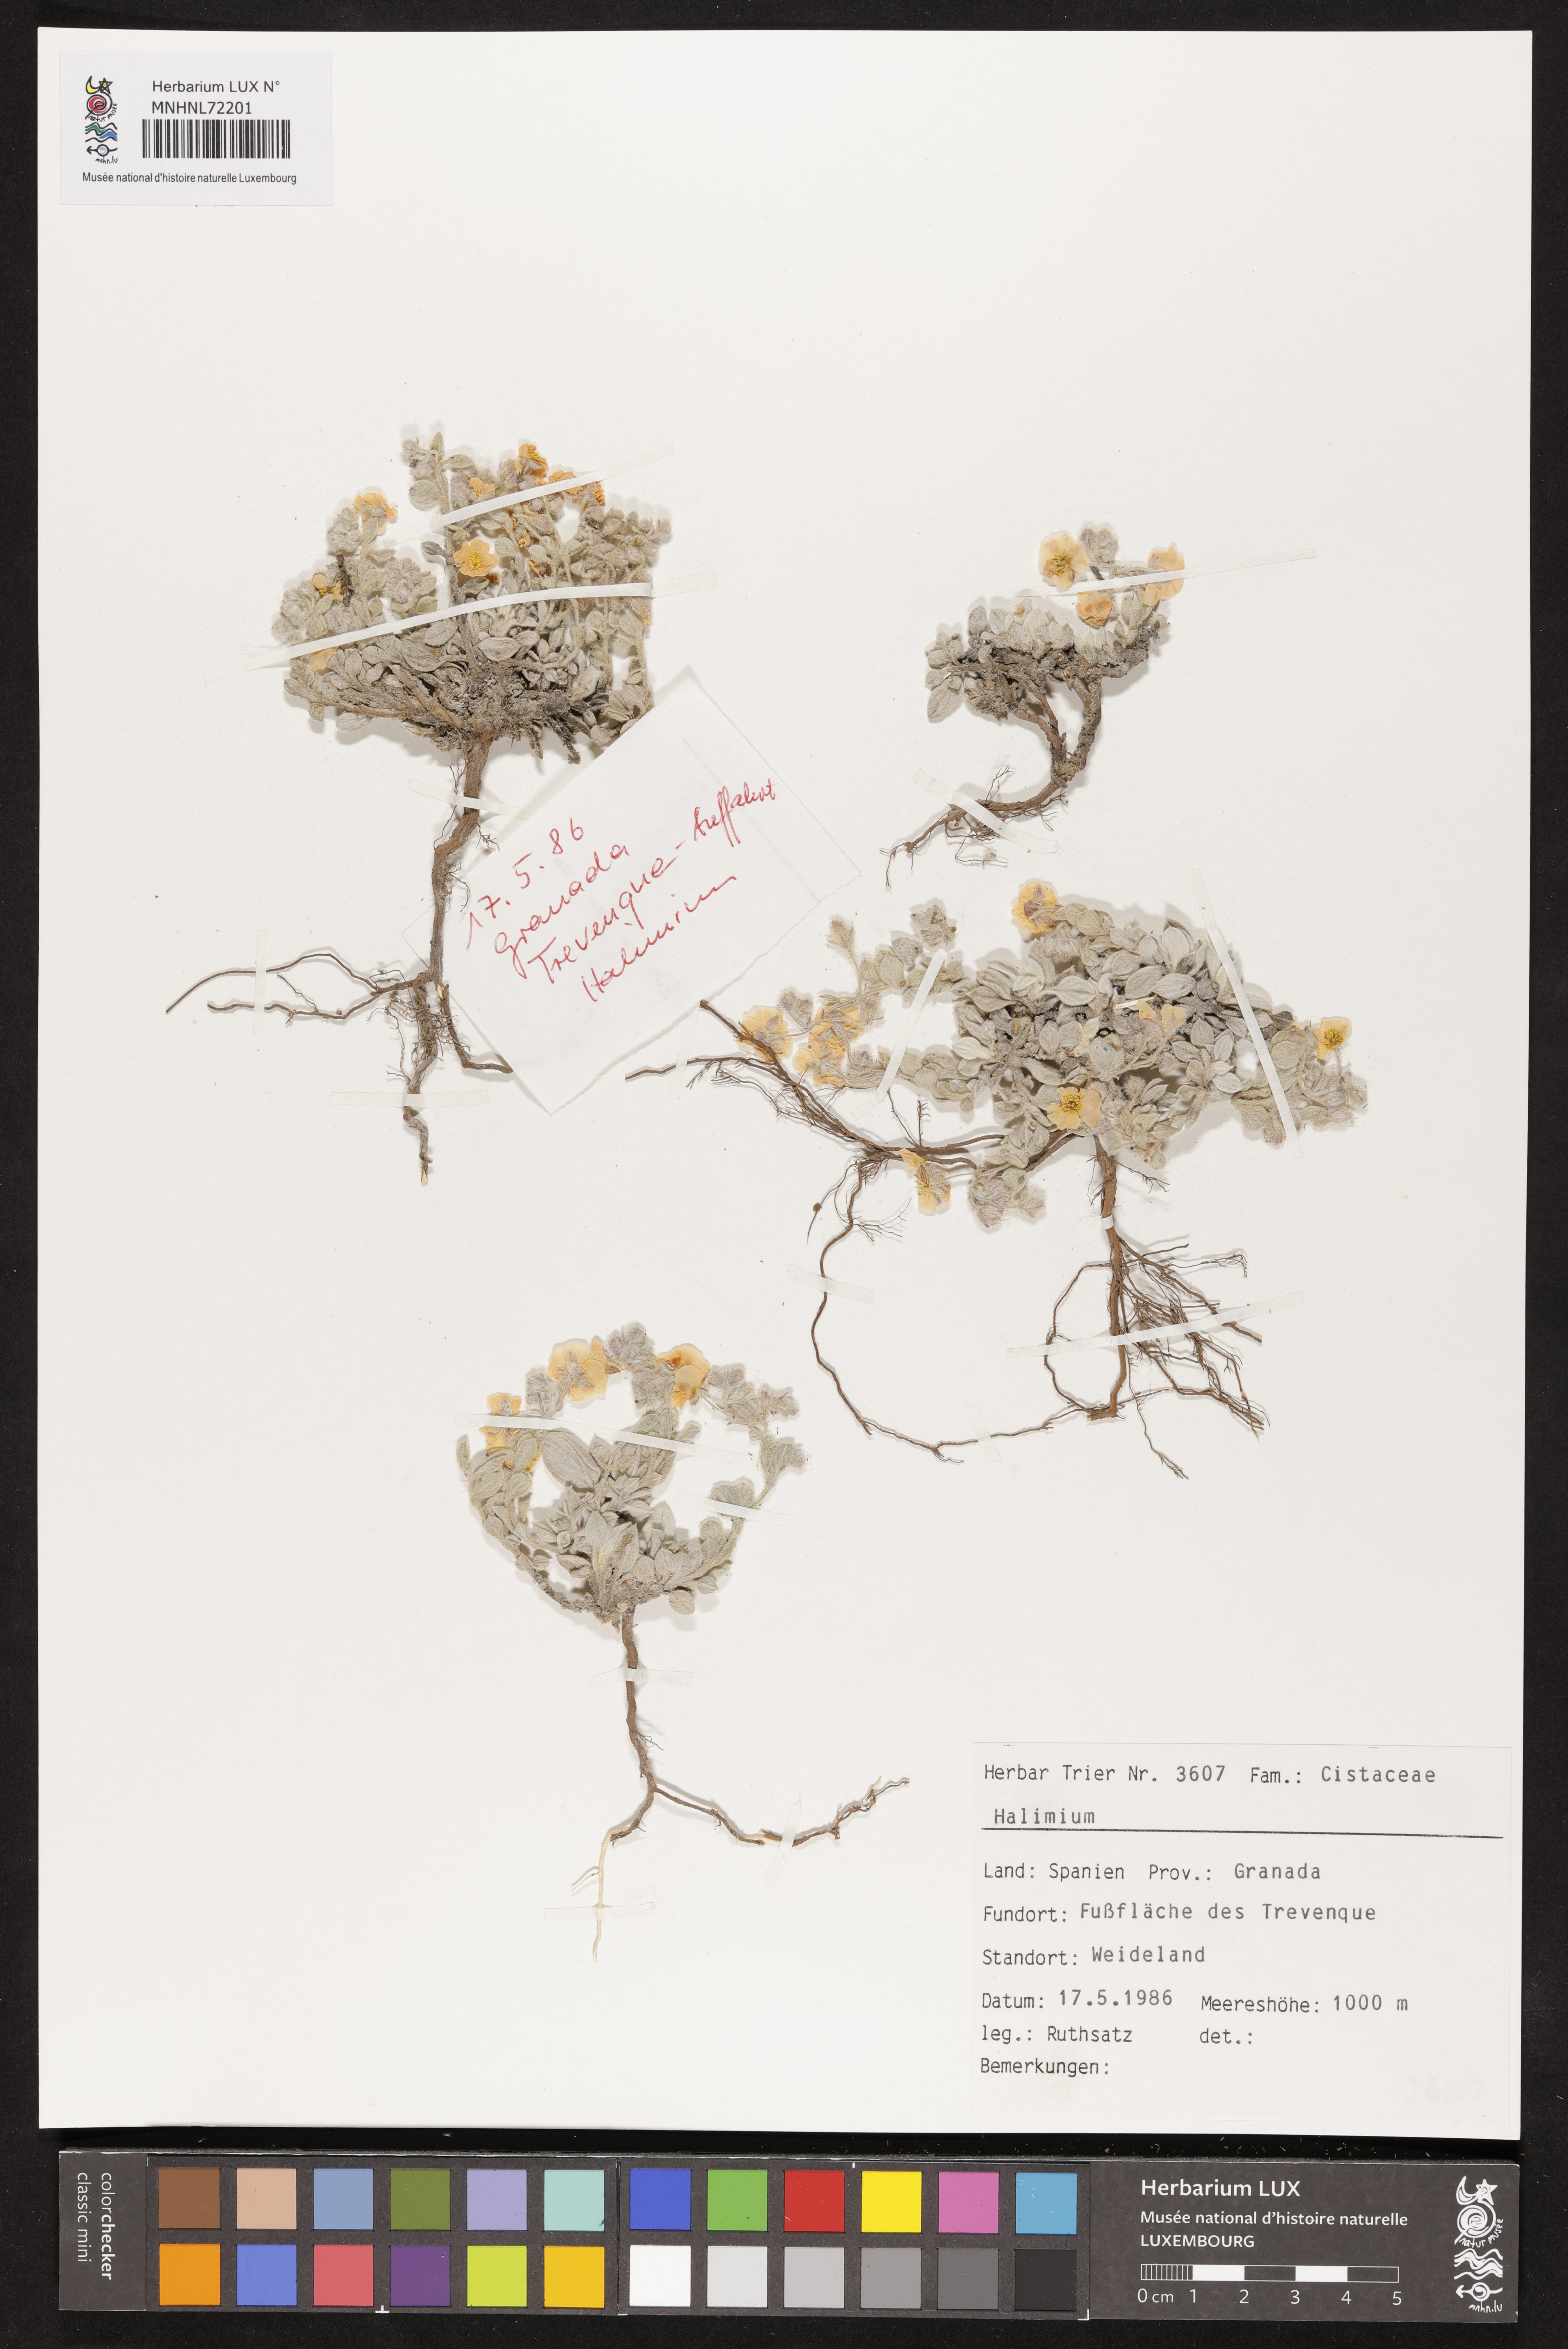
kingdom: Plantae
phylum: Tracheophyta
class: Magnoliopsida
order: Malvales
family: Cistaceae
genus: Halimium
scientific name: Halimium
